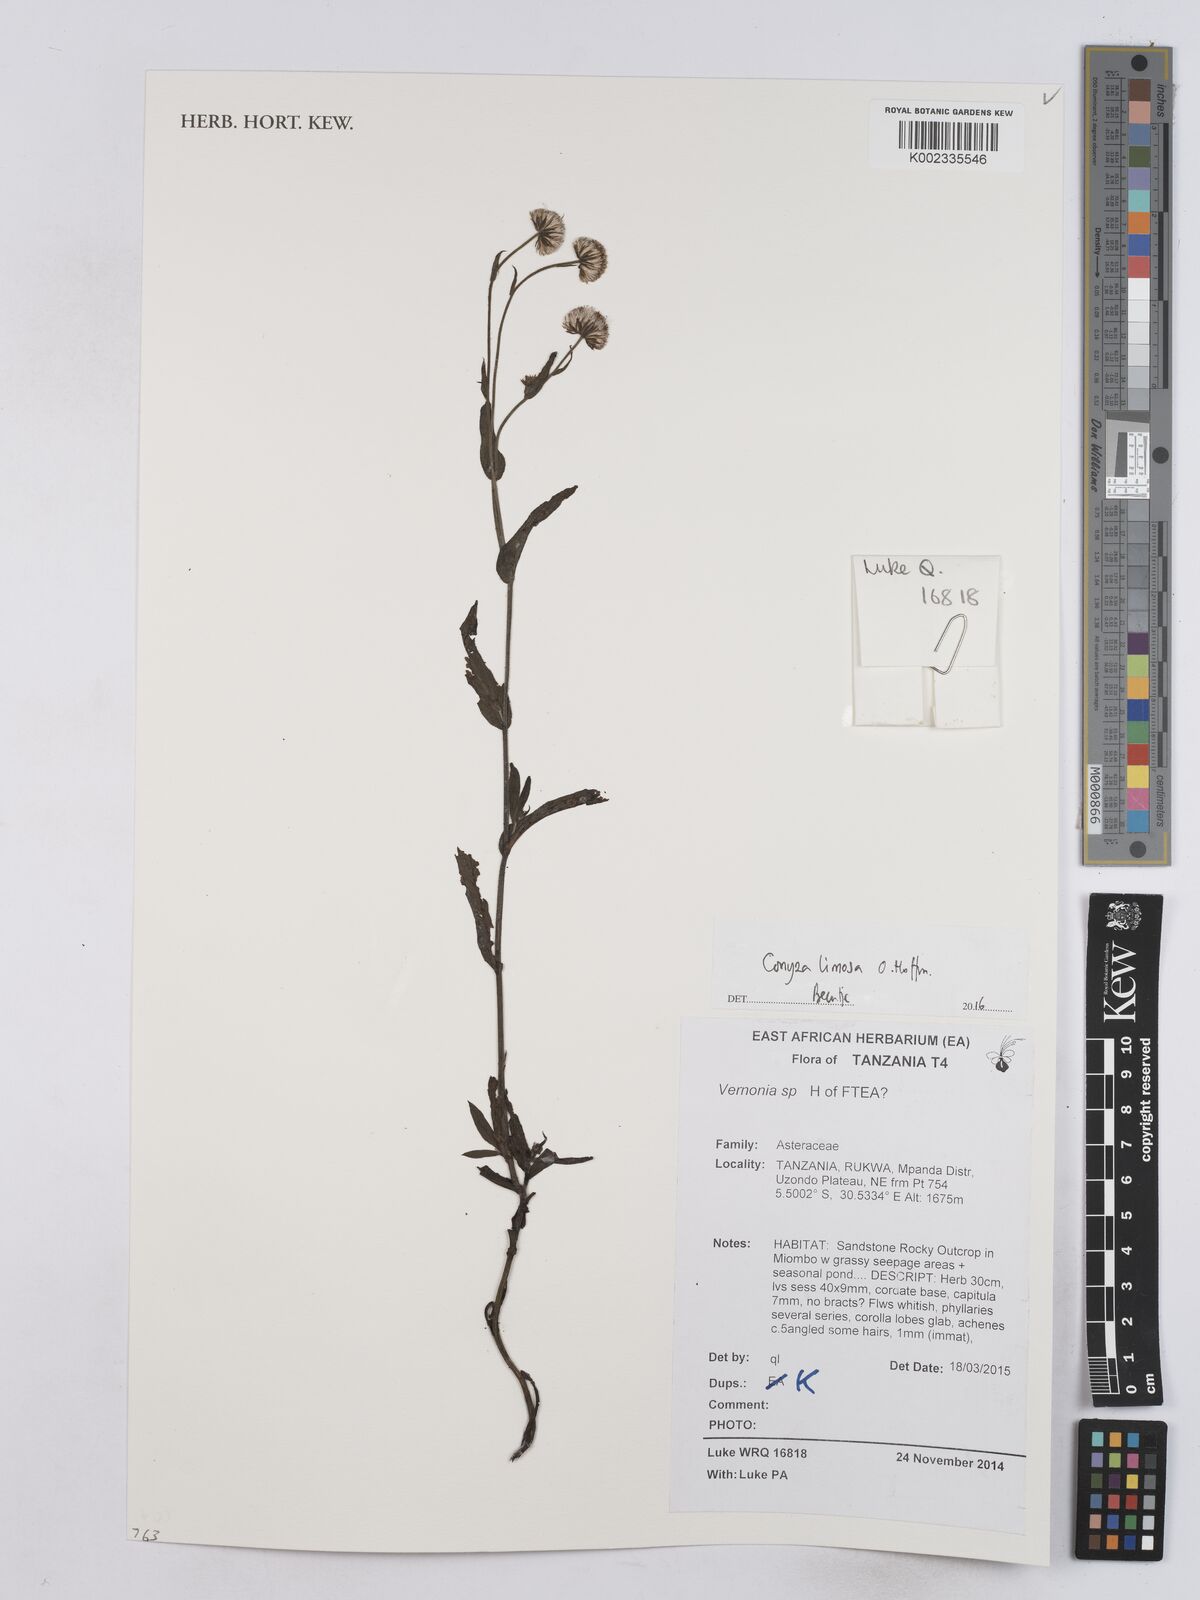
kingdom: Plantae
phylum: Tracheophyta
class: Magnoliopsida
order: Asterales
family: Asteraceae
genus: Conyza
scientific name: Conyza limosa
